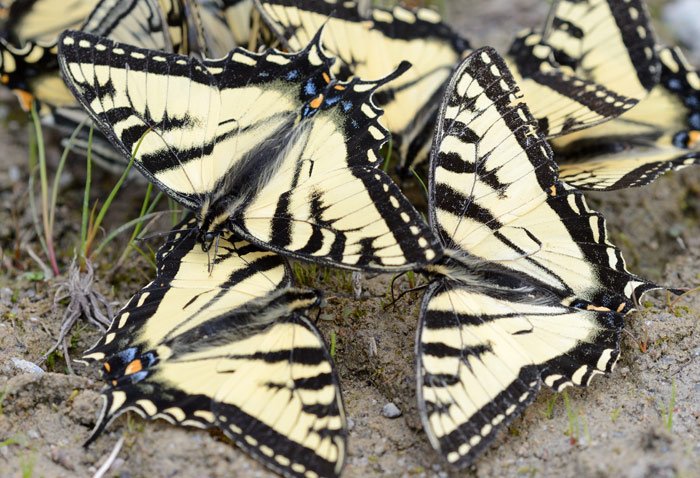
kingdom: Animalia
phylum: Arthropoda
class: Insecta
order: Lepidoptera
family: Papilionidae
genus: Pterourus
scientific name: Pterourus canadensis
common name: Canadian Tiger Swallowtail
